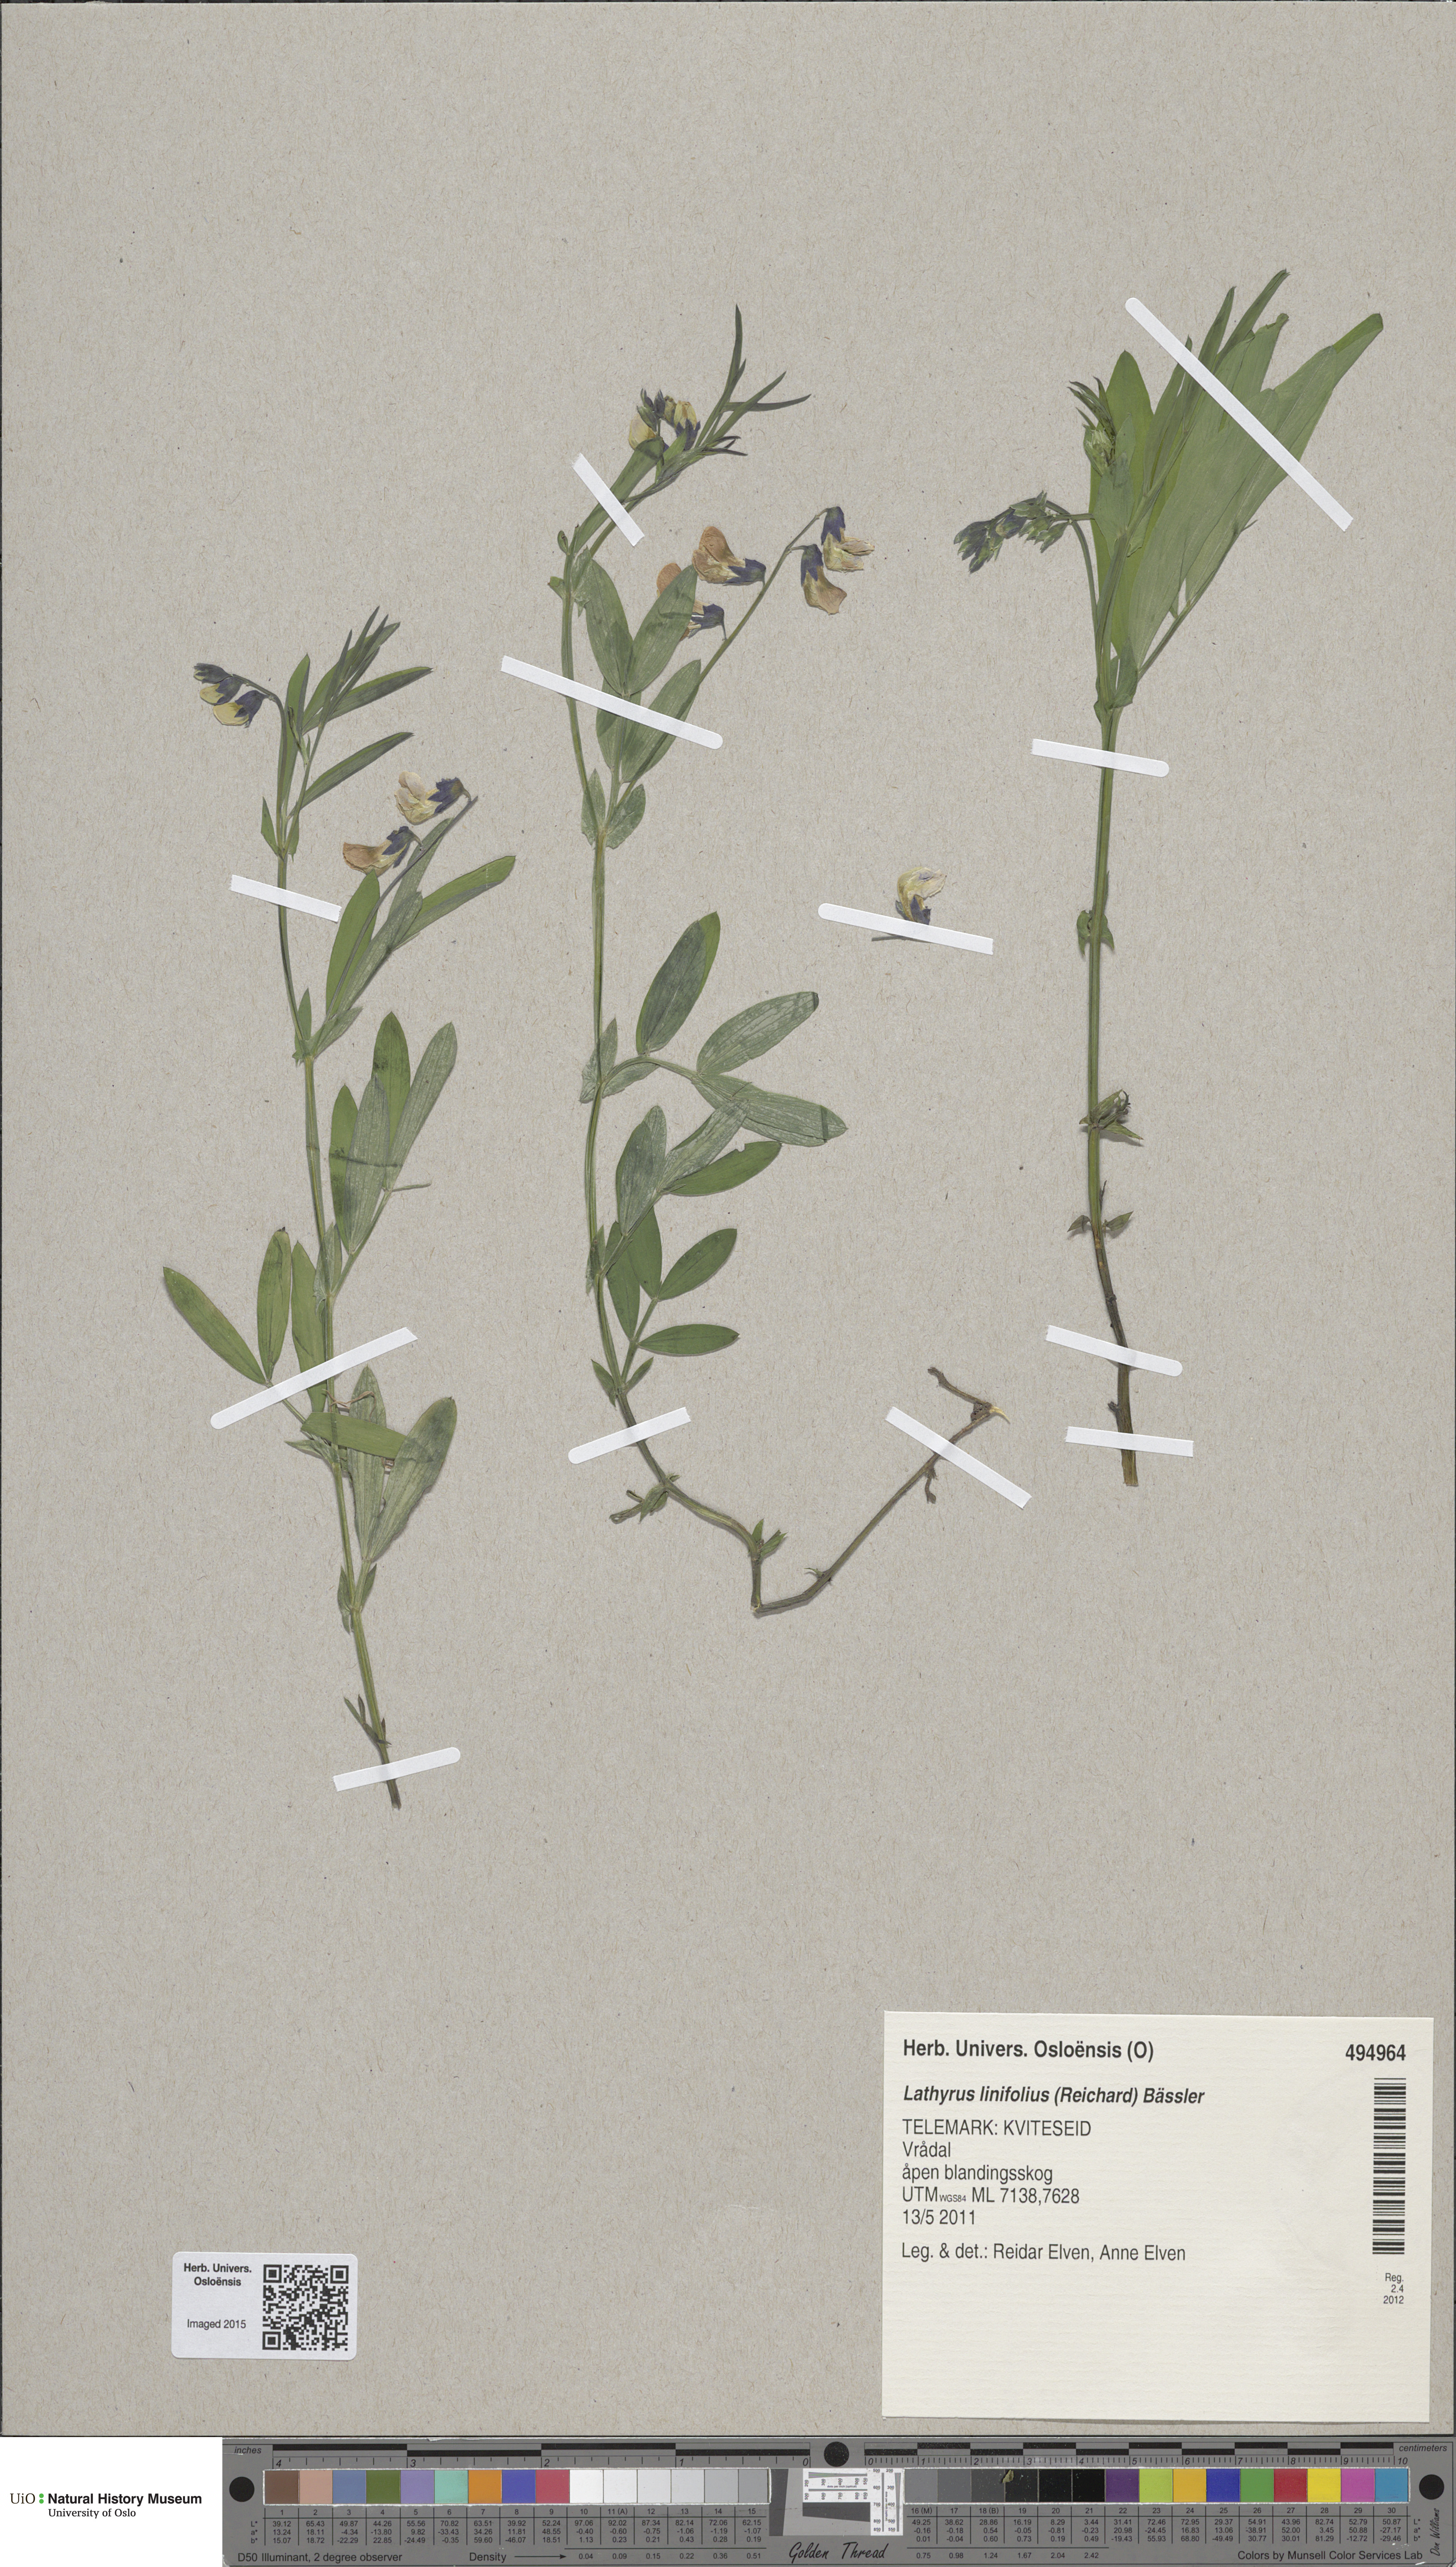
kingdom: Plantae
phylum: Tracheophyta
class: Magnoliopsida
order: Fabales
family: Fabaceae
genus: Lathyrus
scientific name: Lathyrus linifolius
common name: Bitter-vetch
